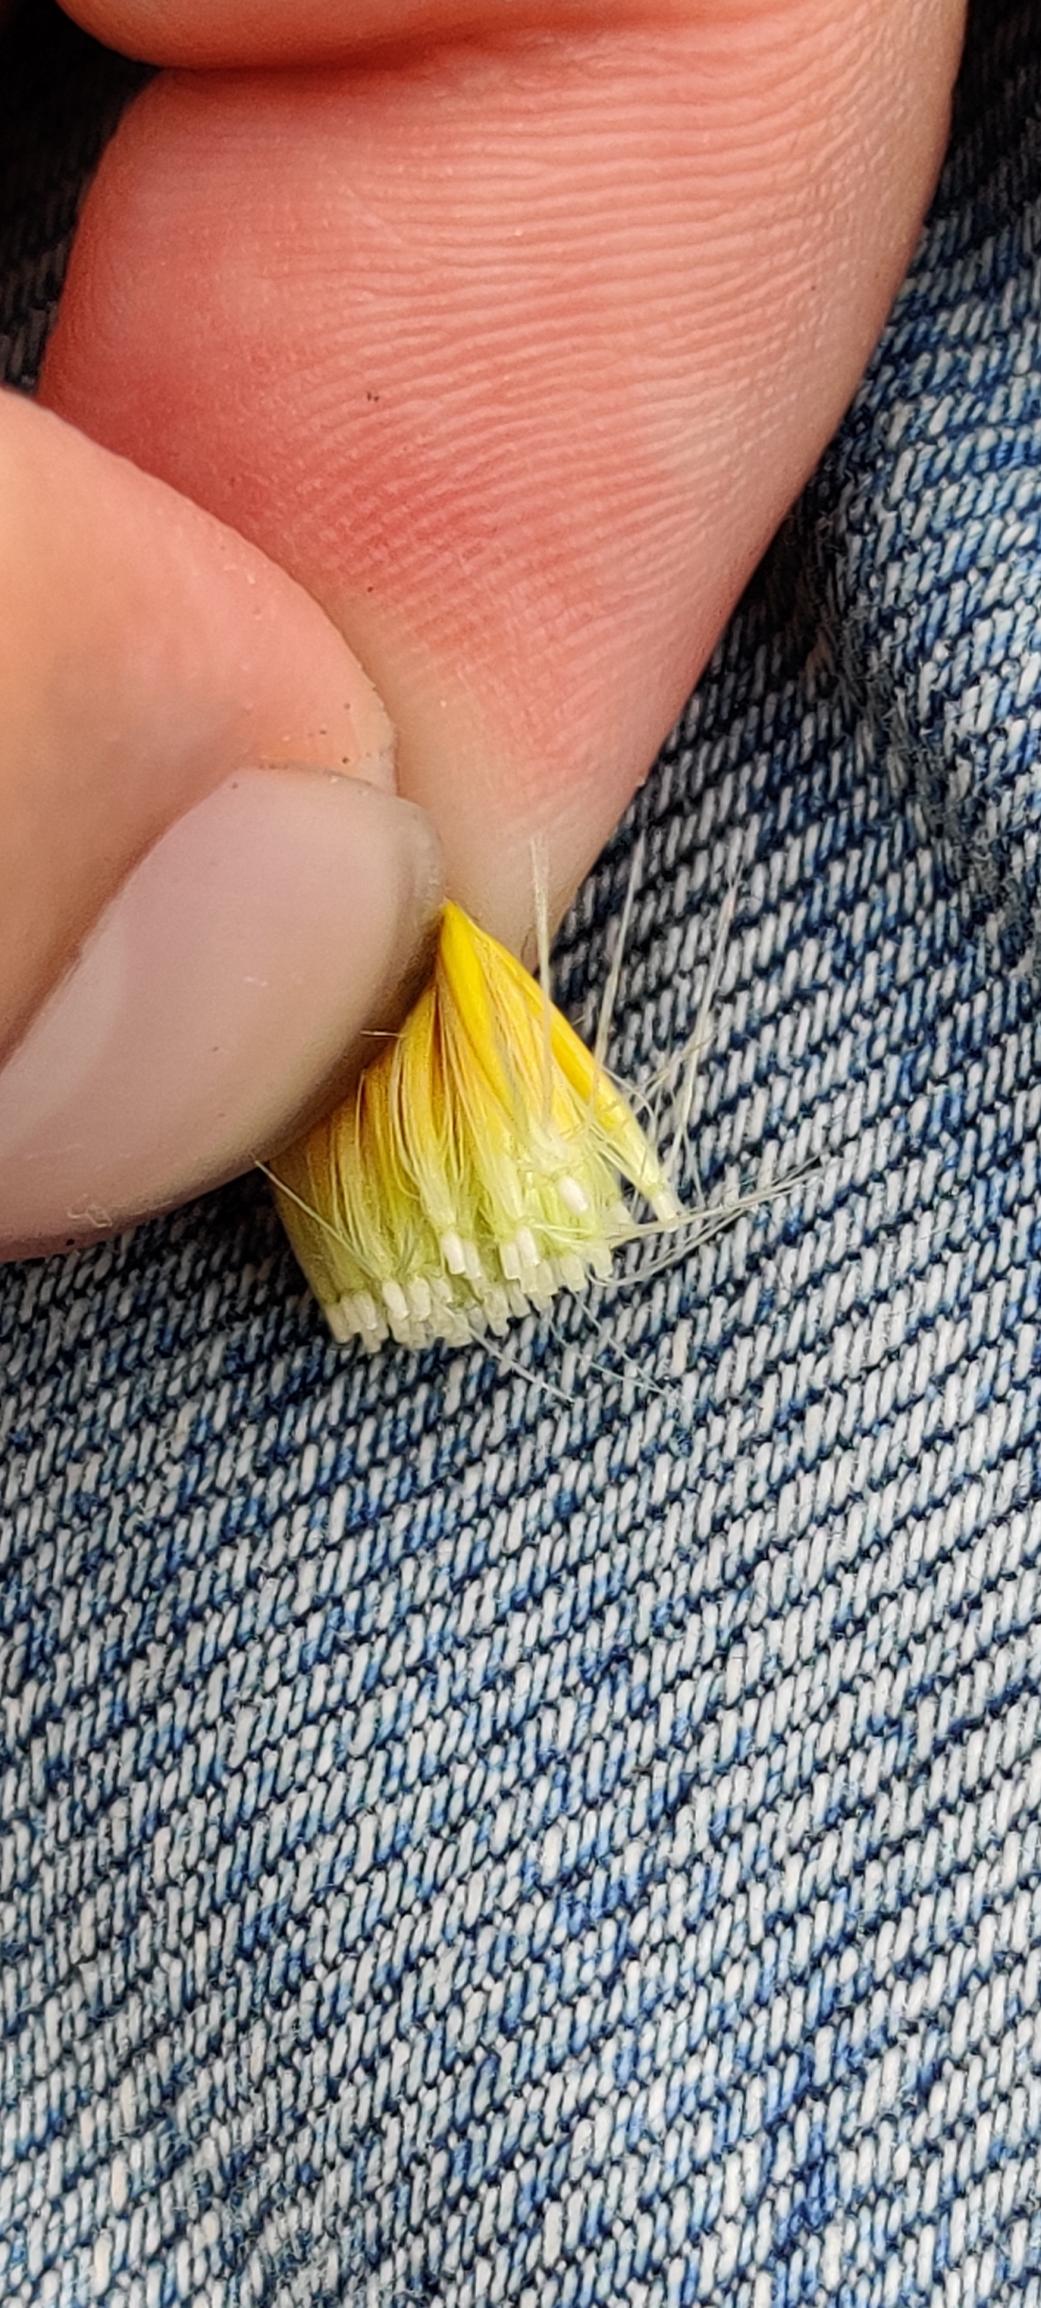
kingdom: Plantae
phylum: Tracheophyta
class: Magnoliopsida
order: Asterales
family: Asteraceae
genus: Scorzoneroides
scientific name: Scorzoneroides autumnalis
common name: Høst-borst
